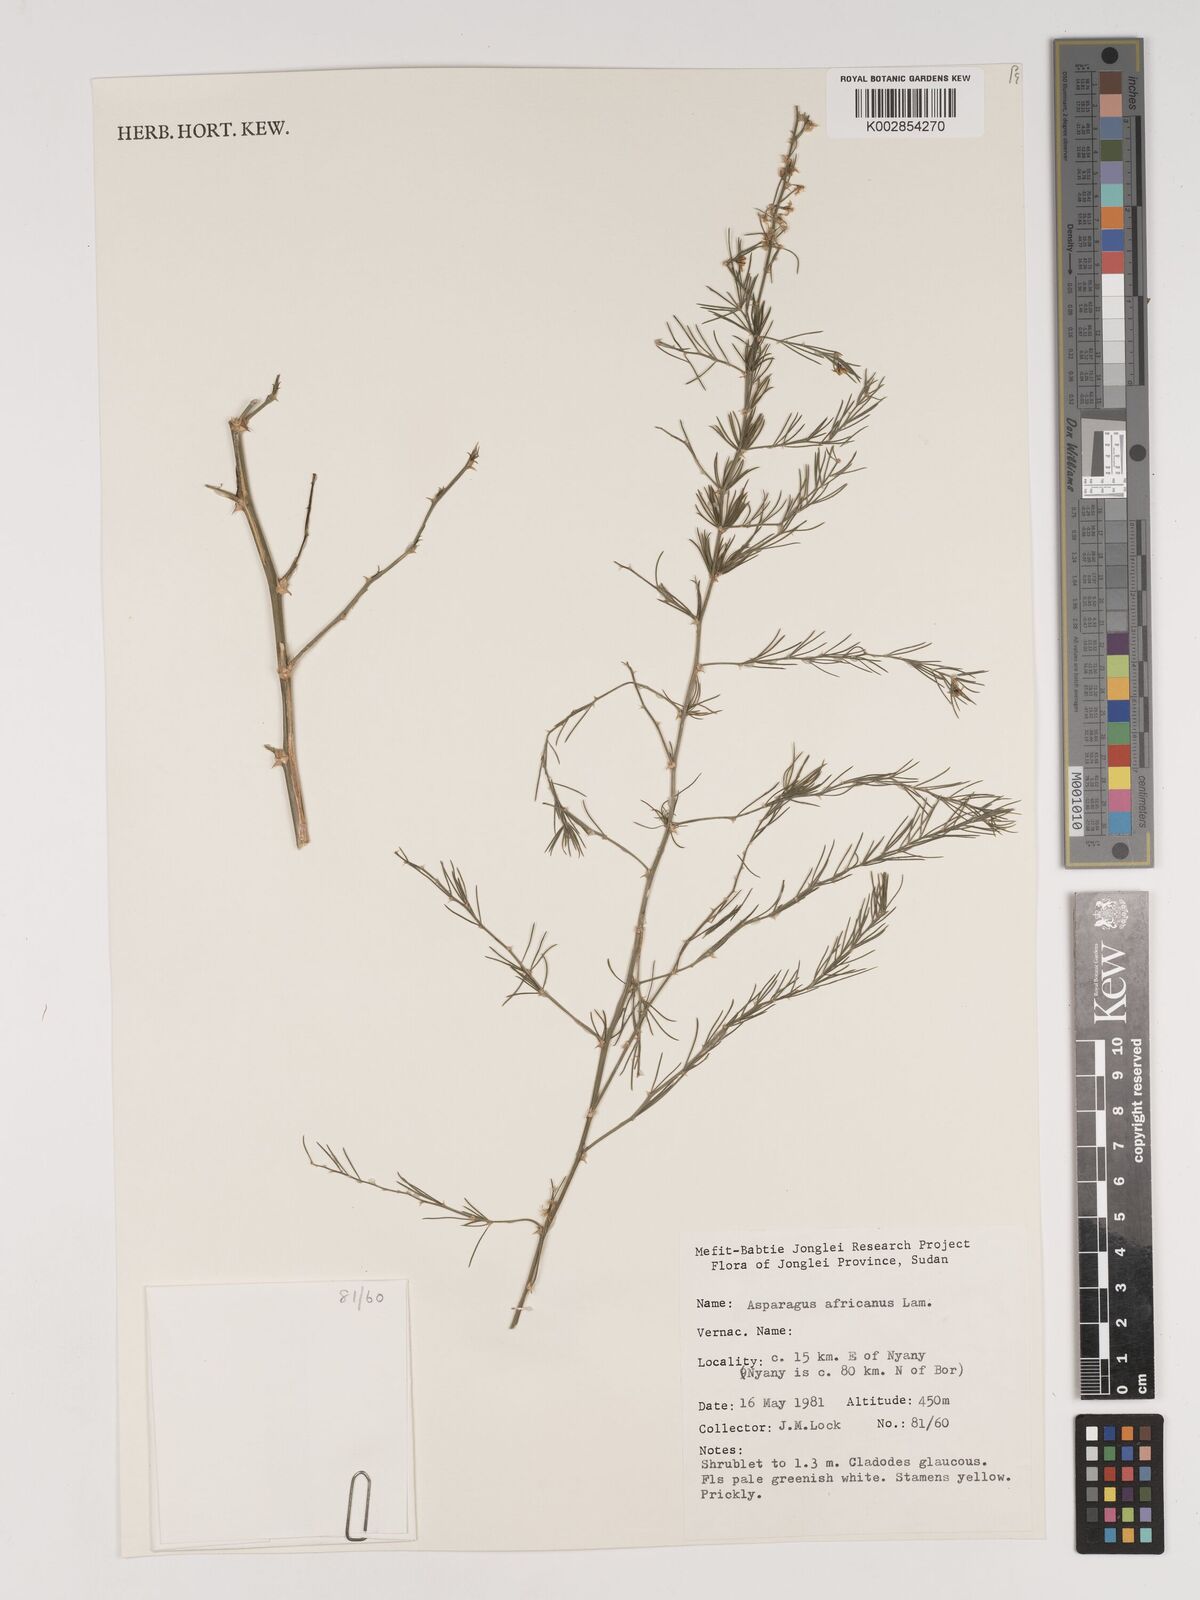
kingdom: Plantae
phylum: Tracheophyta
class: Liliopsida
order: Asparagales
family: Asparagaceae
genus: Asparagus
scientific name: Asparagus africanus
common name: Asparagus-fern
